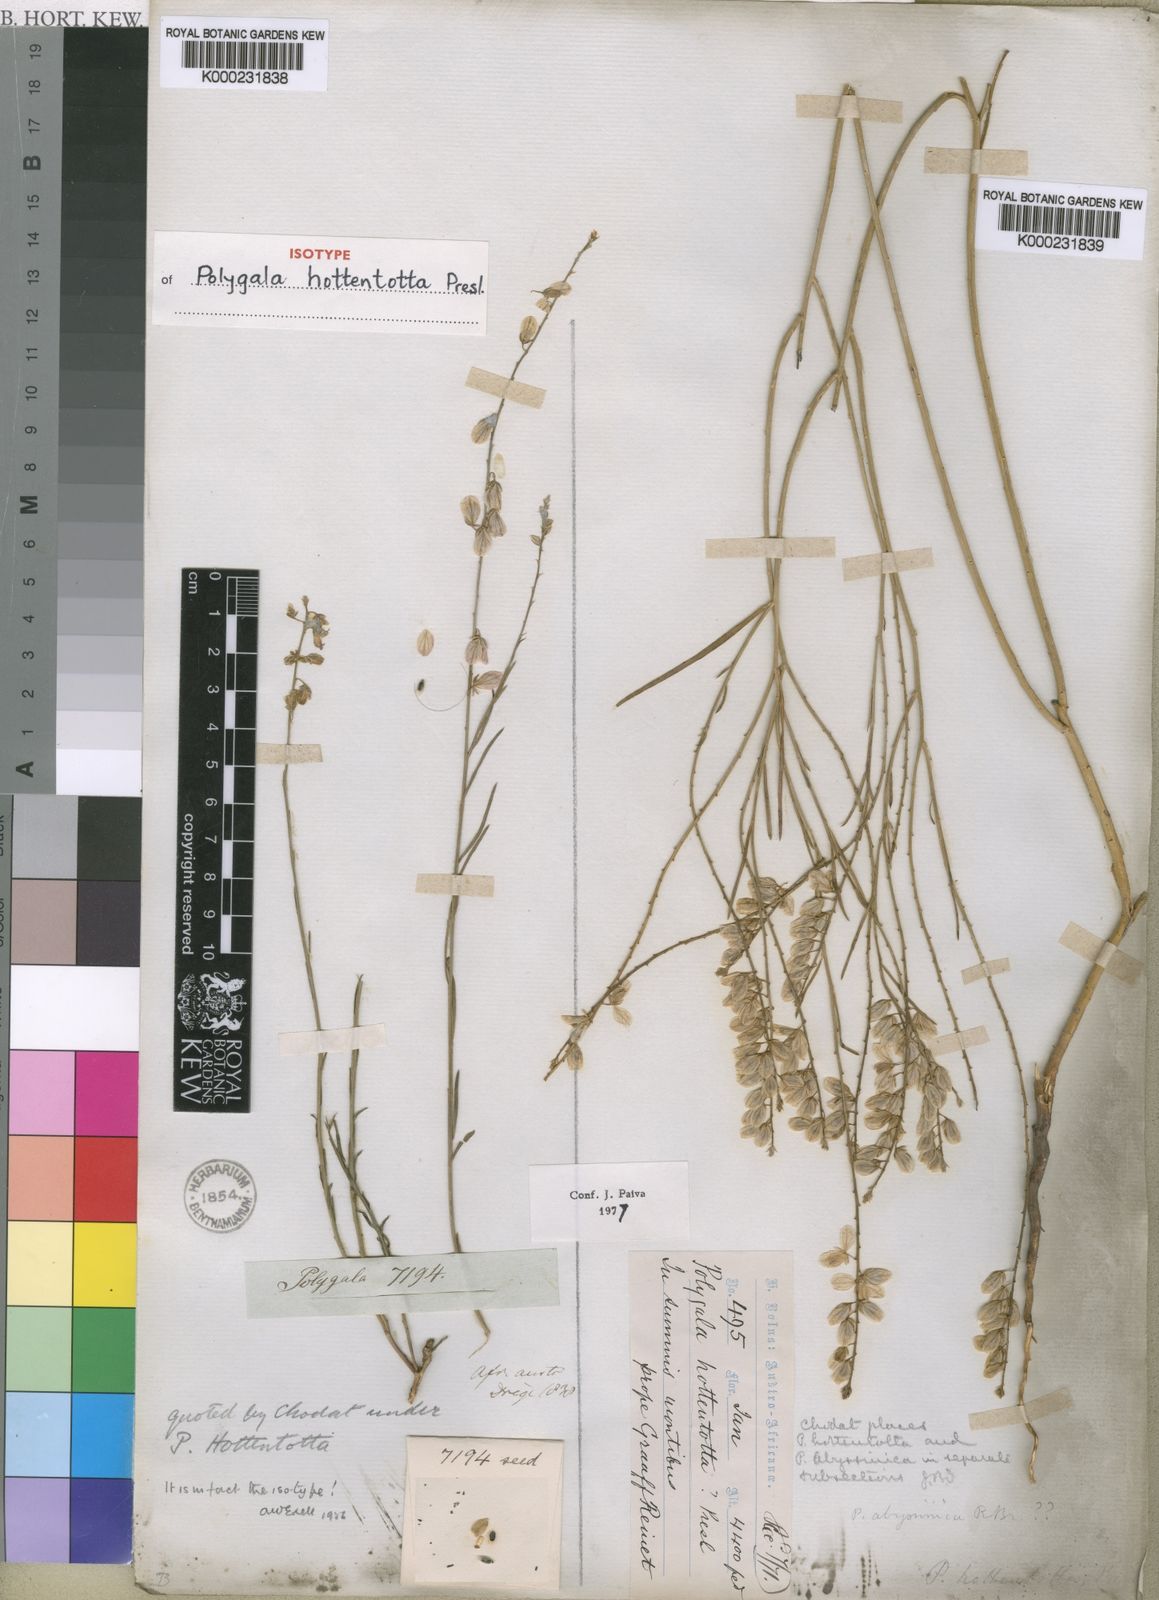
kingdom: Plantae
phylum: Tracheophyta
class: Magnoliopsida
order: Fabales
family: Polygalaceae
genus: Polygala
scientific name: Polygala hottentotta
